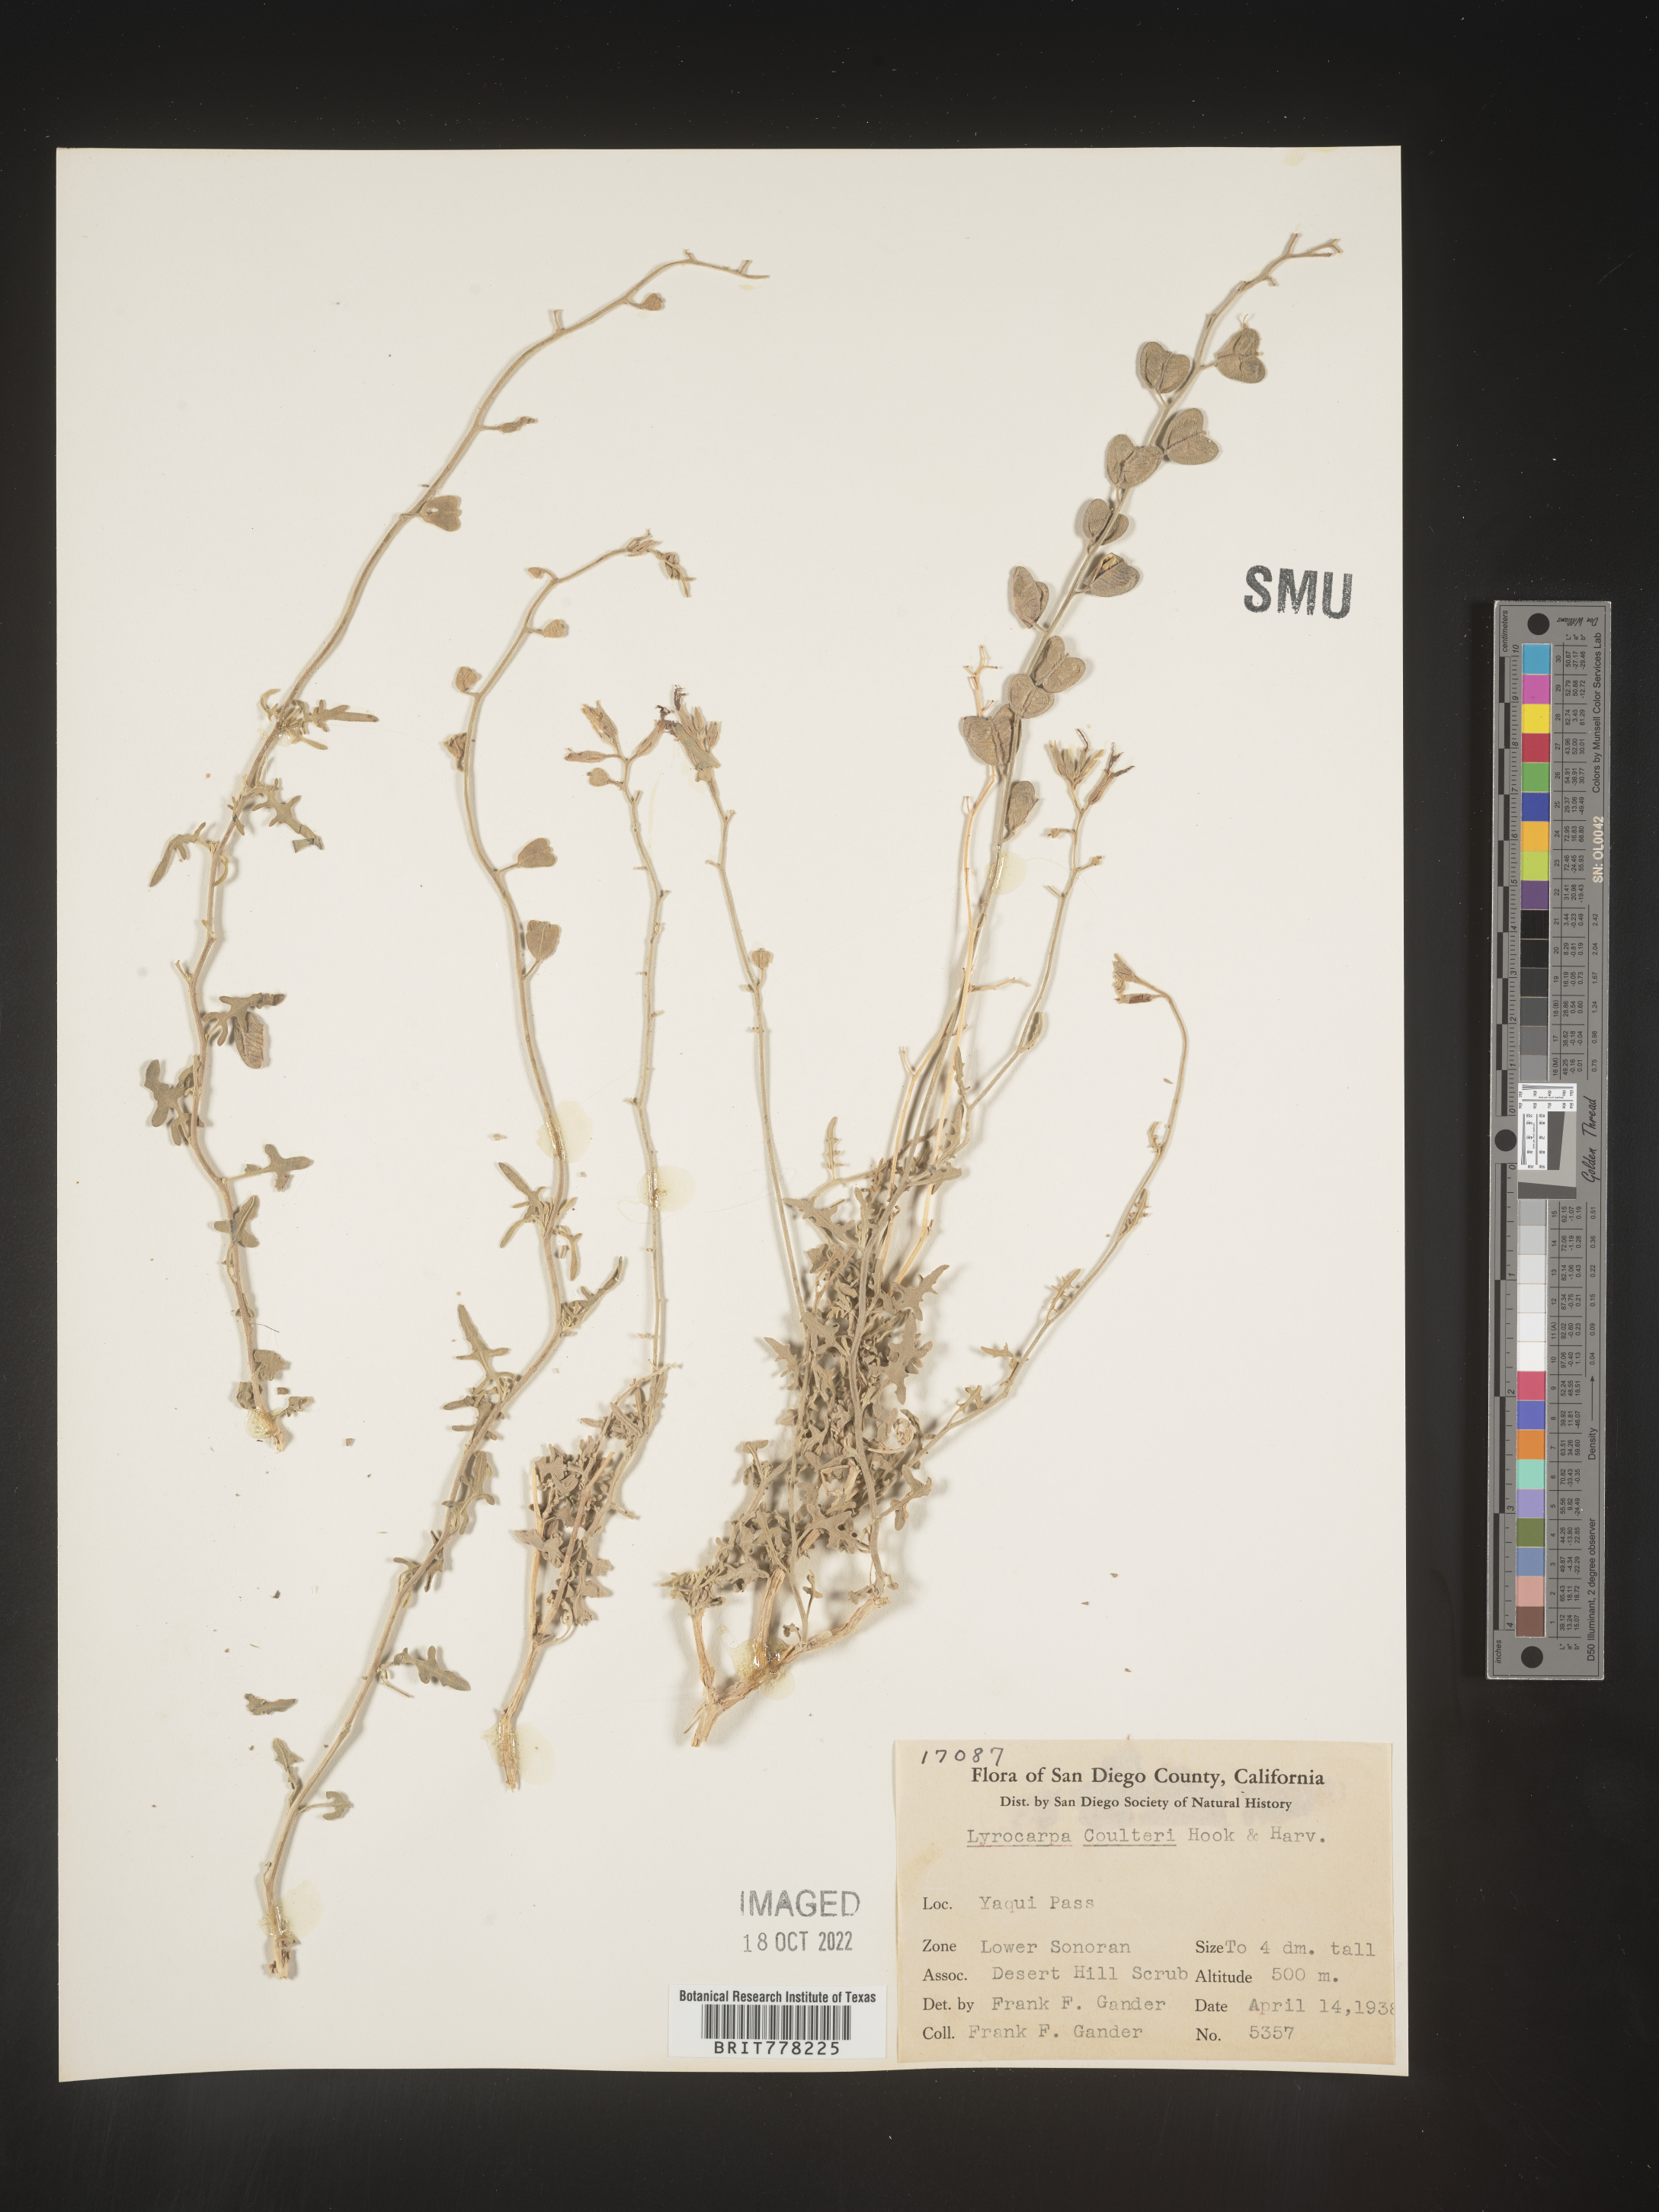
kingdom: Plantae
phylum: Tracheophyta
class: Magnoliopsida
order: Brassicales
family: Brassicaceae
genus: Lyrocarpa
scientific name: Lyrocarpa
